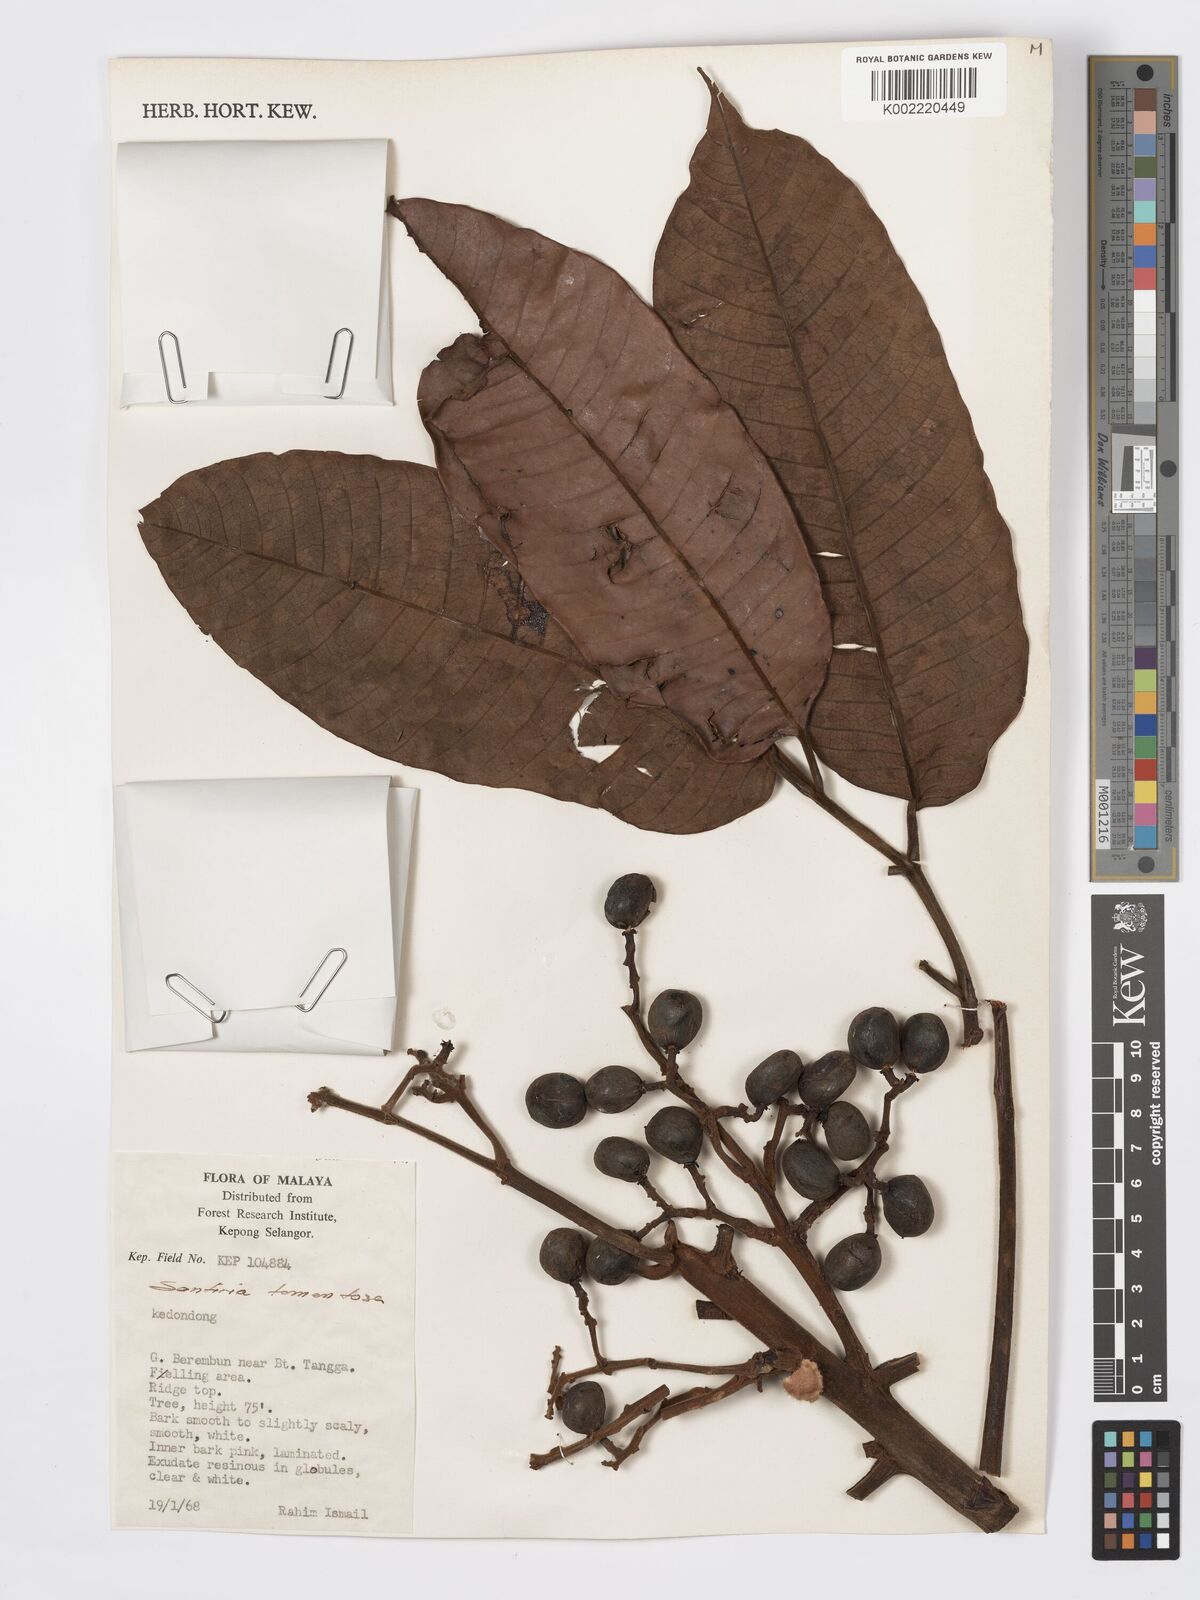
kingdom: Plantae
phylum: Tracheophyta
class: Magnoliopsida
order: Sapindales
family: Burseraceae
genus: Santiria
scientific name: Santiria tomentosa
